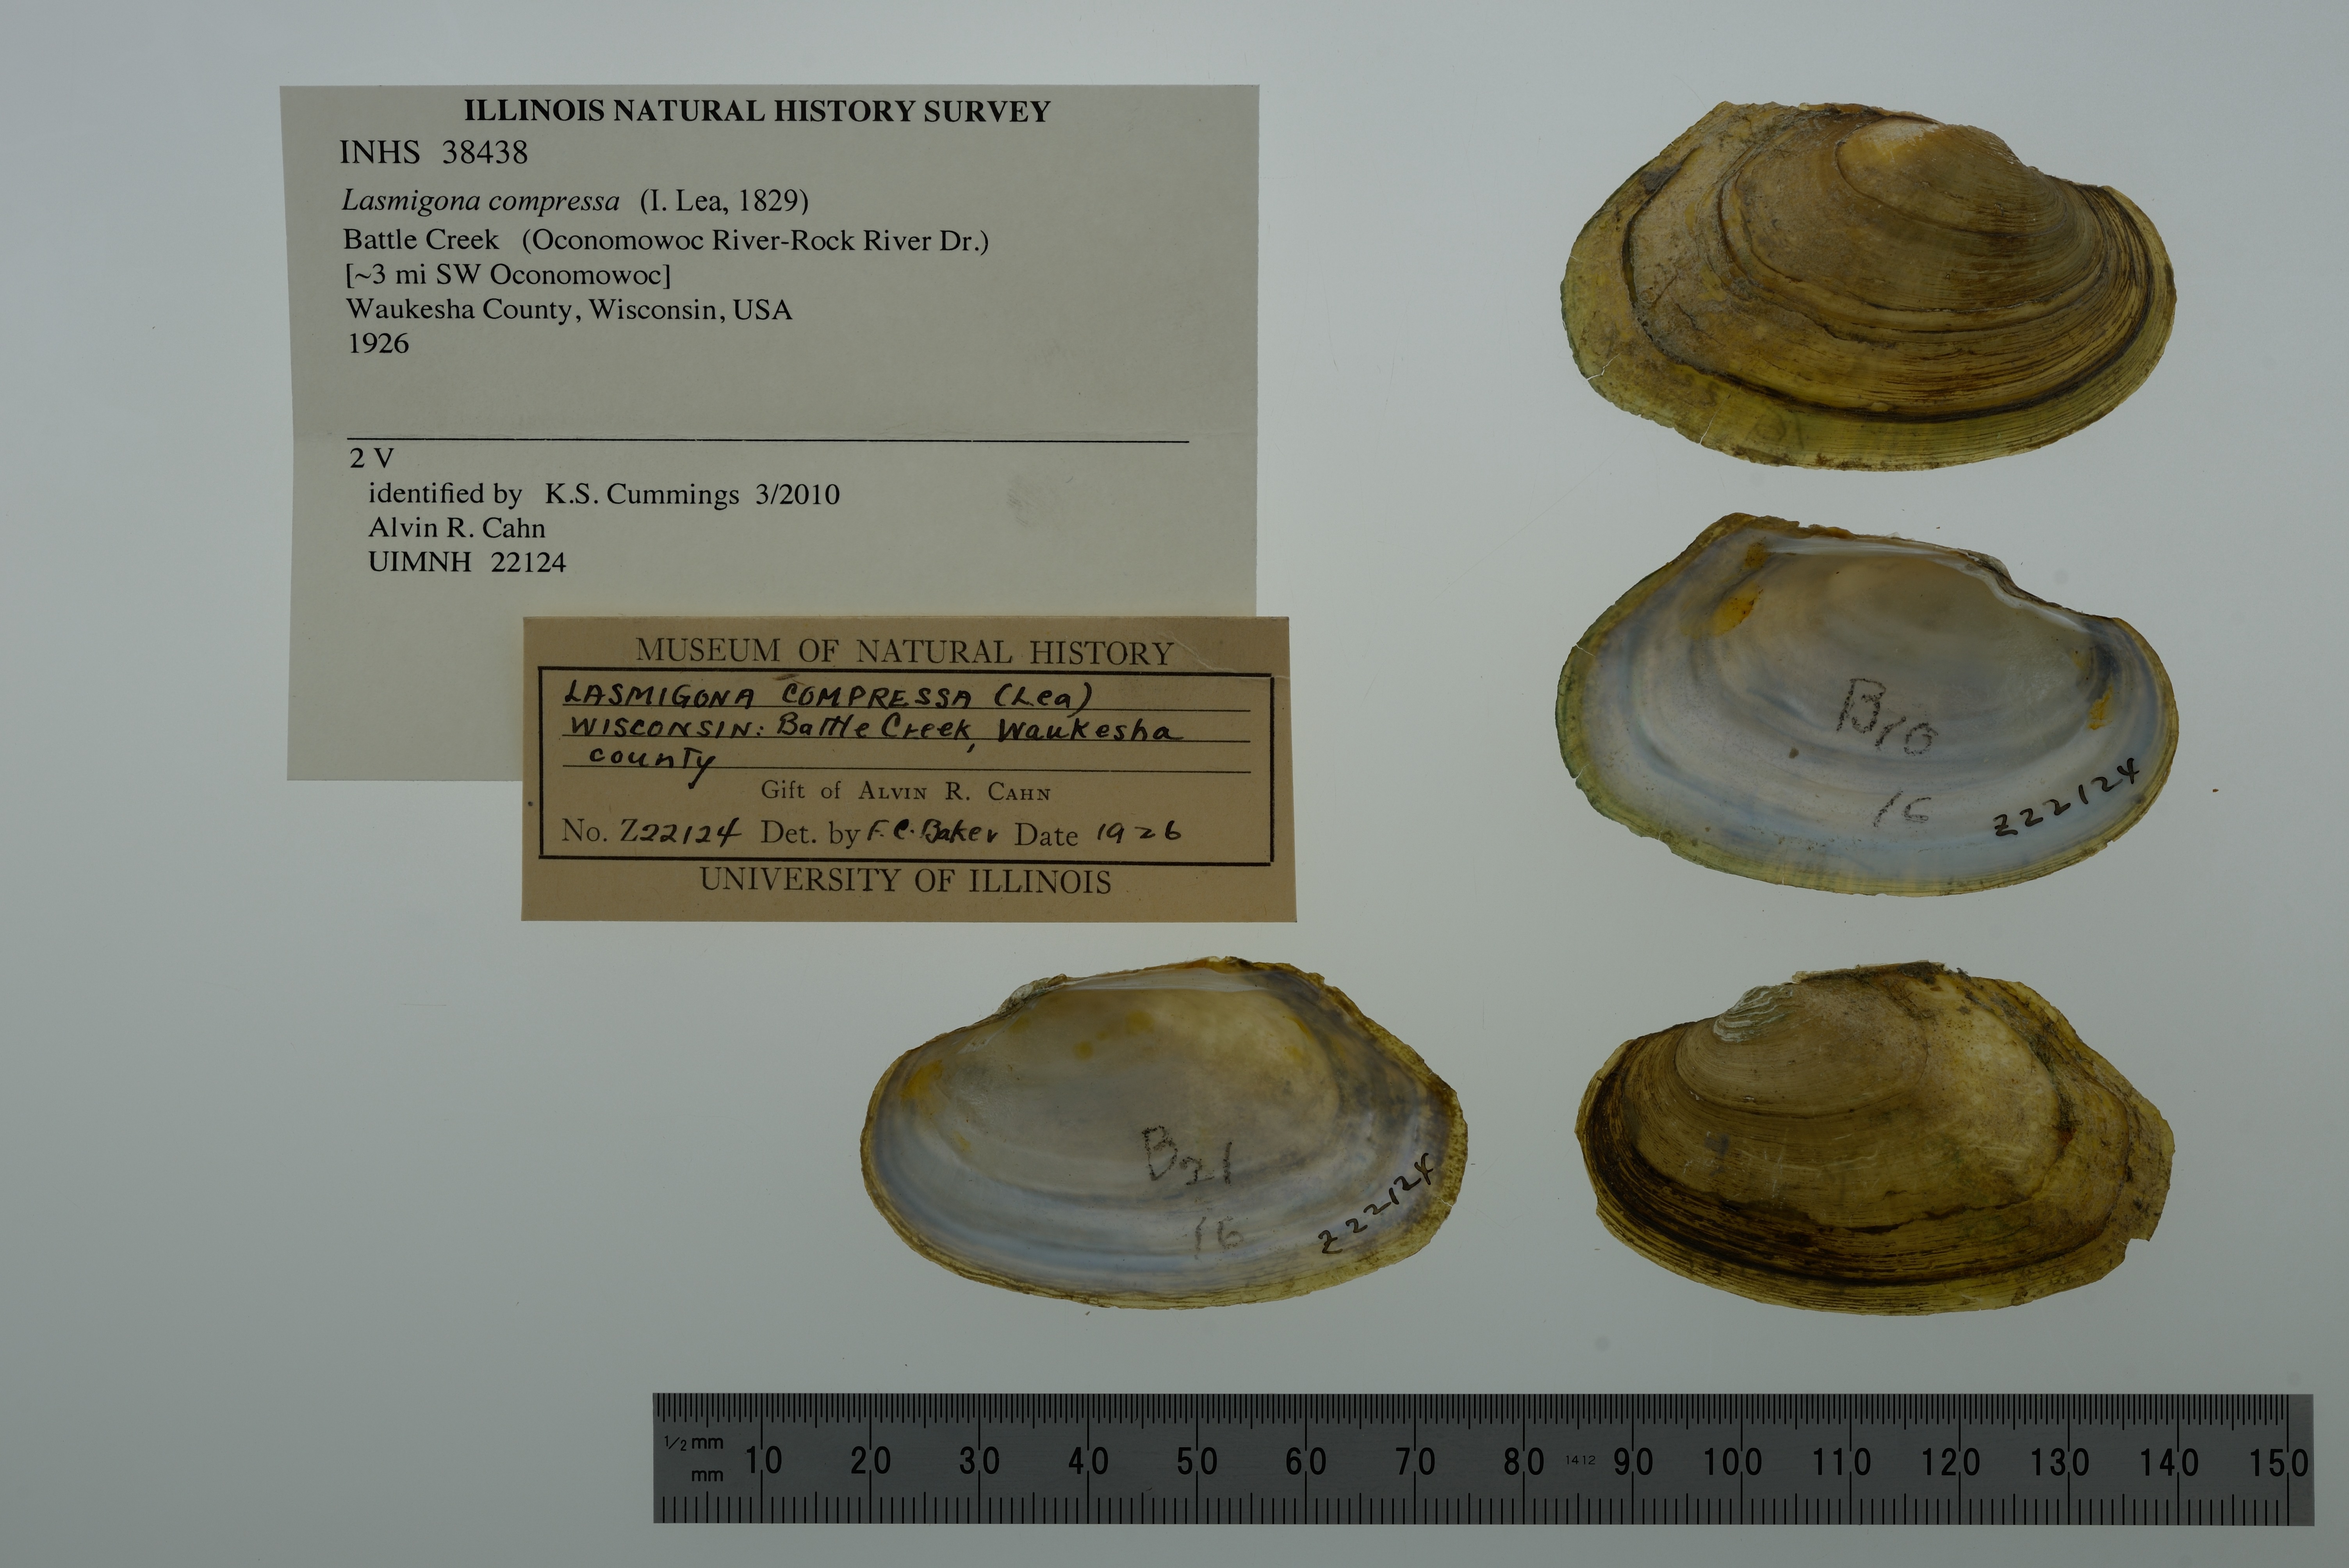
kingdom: Animalia
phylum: Mollusca
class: Bivalvia
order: Unionida
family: Unionidae
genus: Lasmigona
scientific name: Lasmigona compressa
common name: Creek heelsplitter
